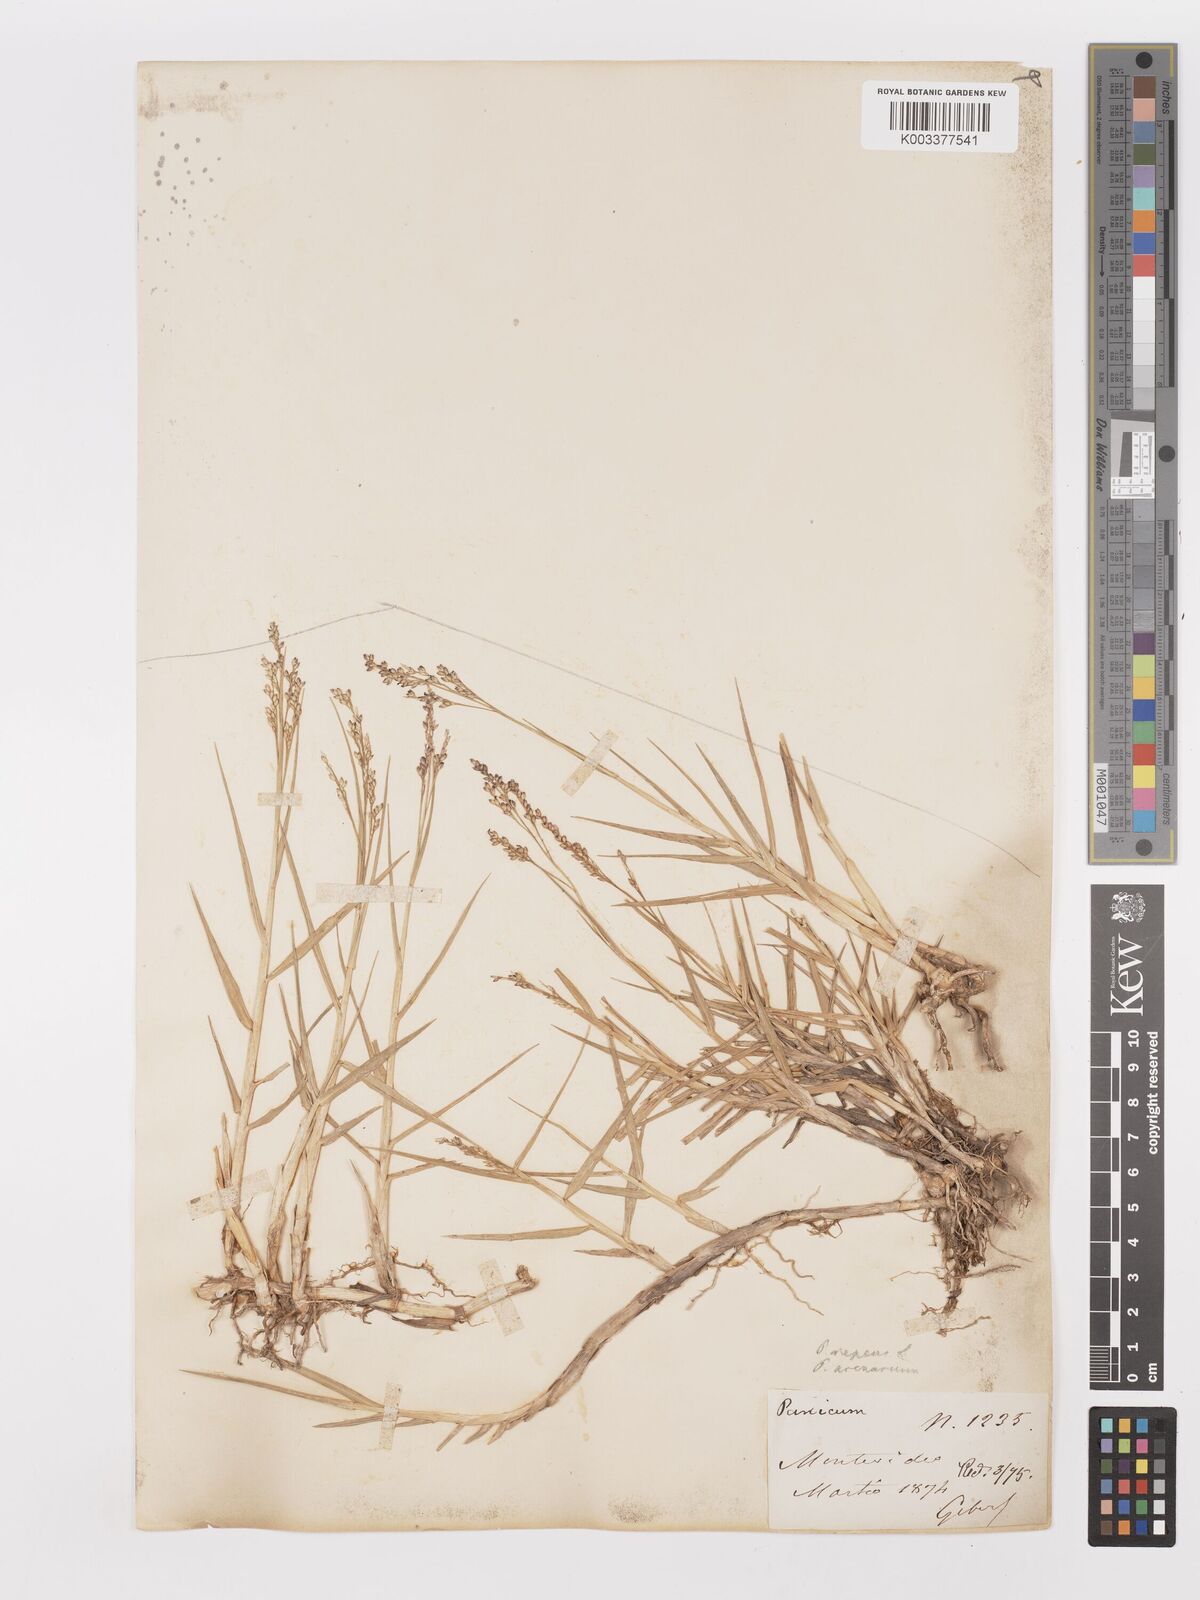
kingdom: Plantae
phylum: Tracheophyta
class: Liliopsida
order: Poales
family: Poaceae
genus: Panicum
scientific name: Panicum repens
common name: Torpedo grass
